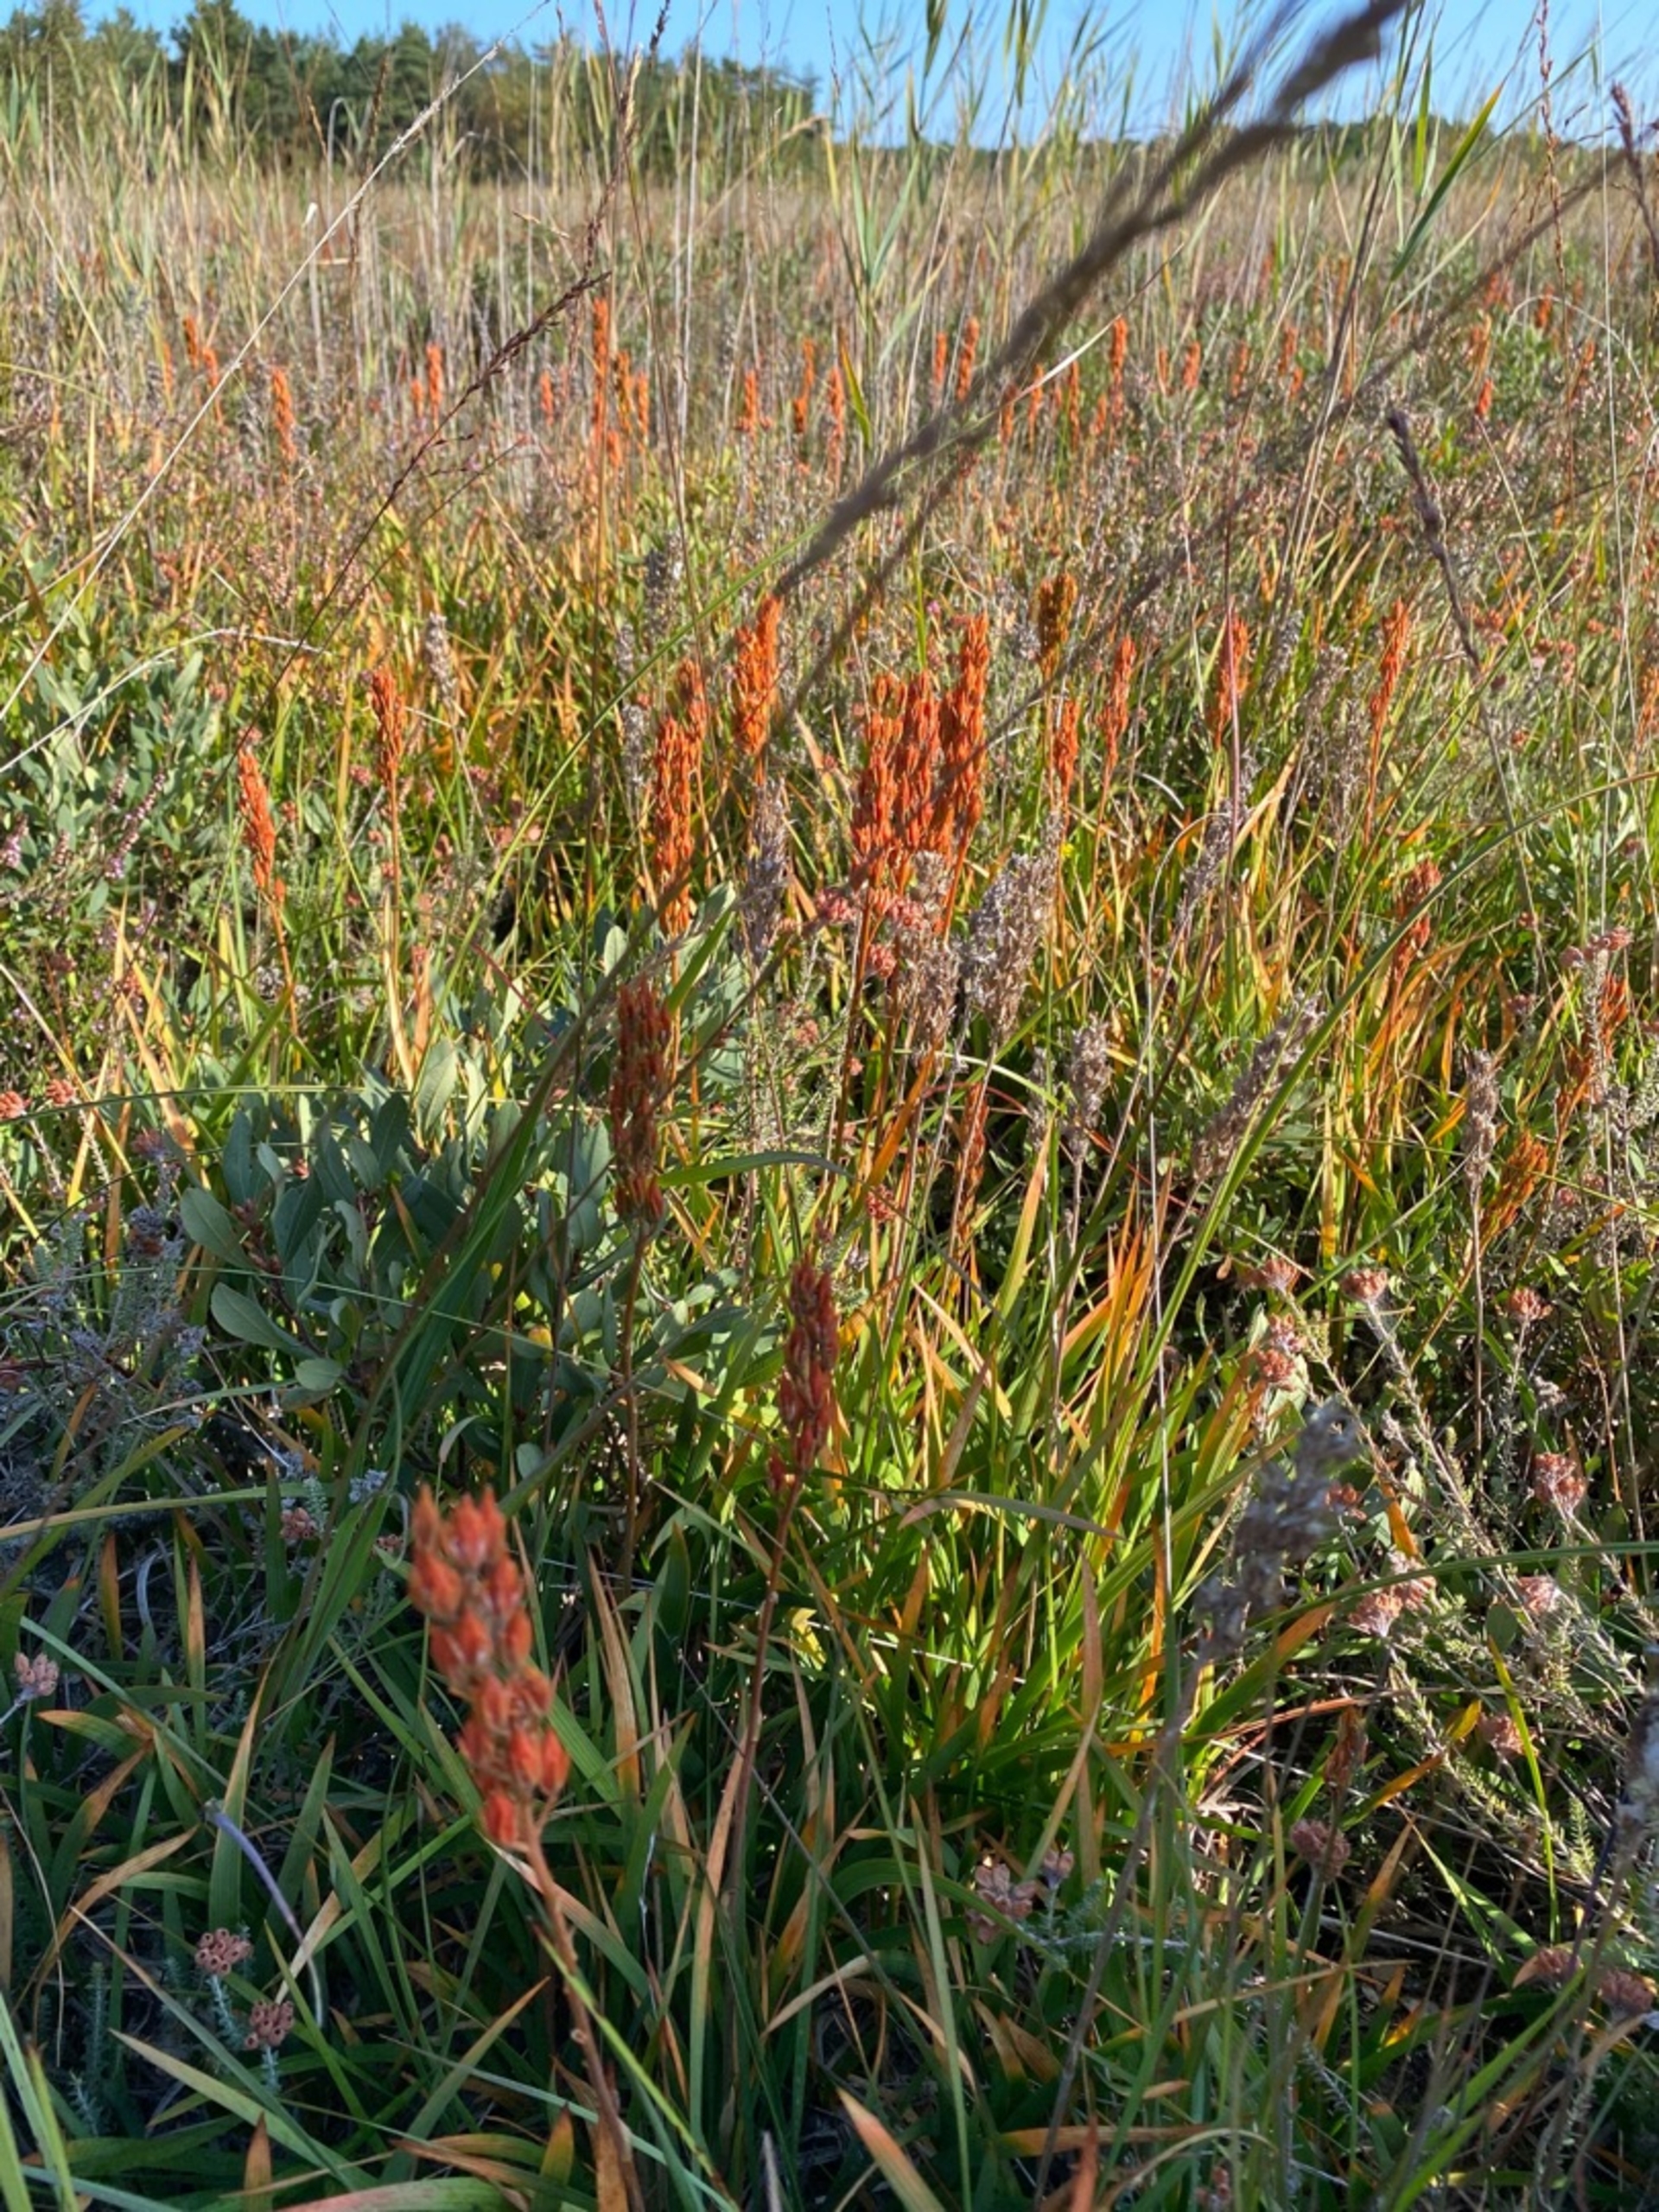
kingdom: Plantae
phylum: Tracheophyta
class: Liliopsida
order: Dioscoreales
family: Nartheciaceae
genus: Narthecium
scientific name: Narthecium ossifragum
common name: Benbræk
